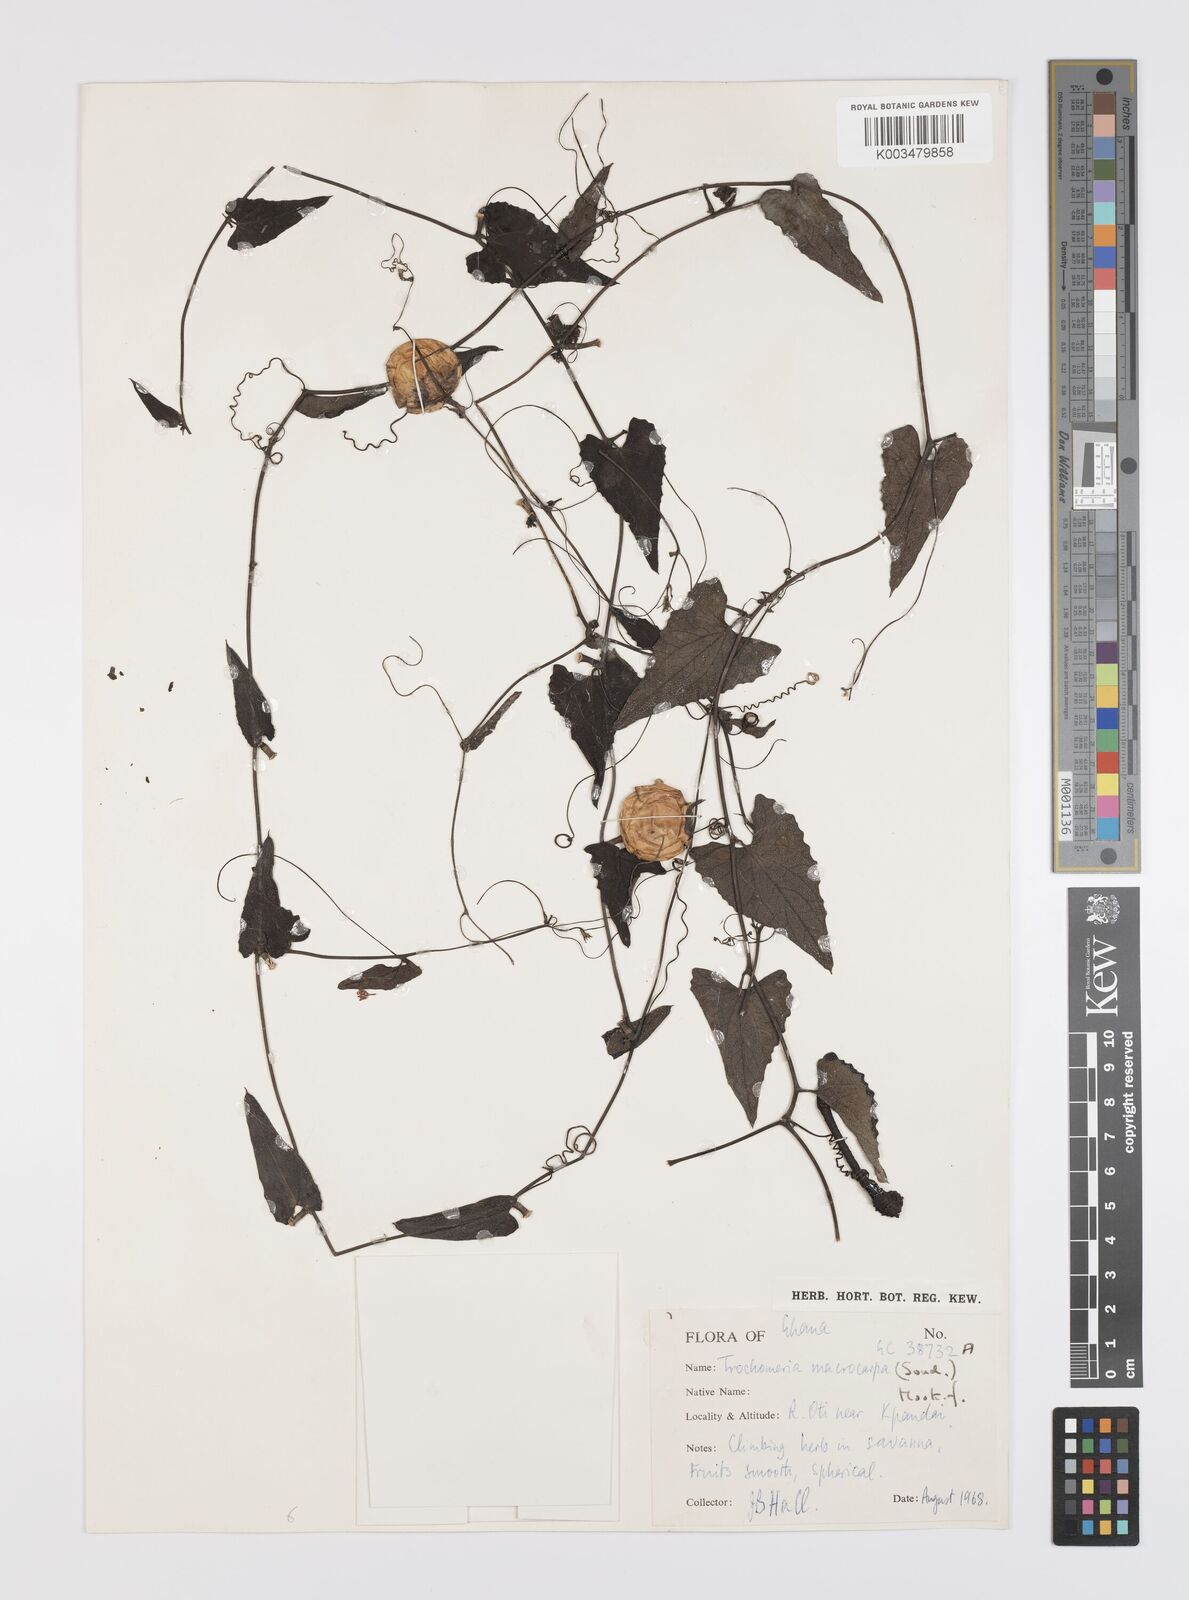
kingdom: Plantae
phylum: Tracheophyta
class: Magnoliopsida
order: Cucurbitales
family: Cucurbitaceae
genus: Trochomeria
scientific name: Trochomeria macrocarpa
